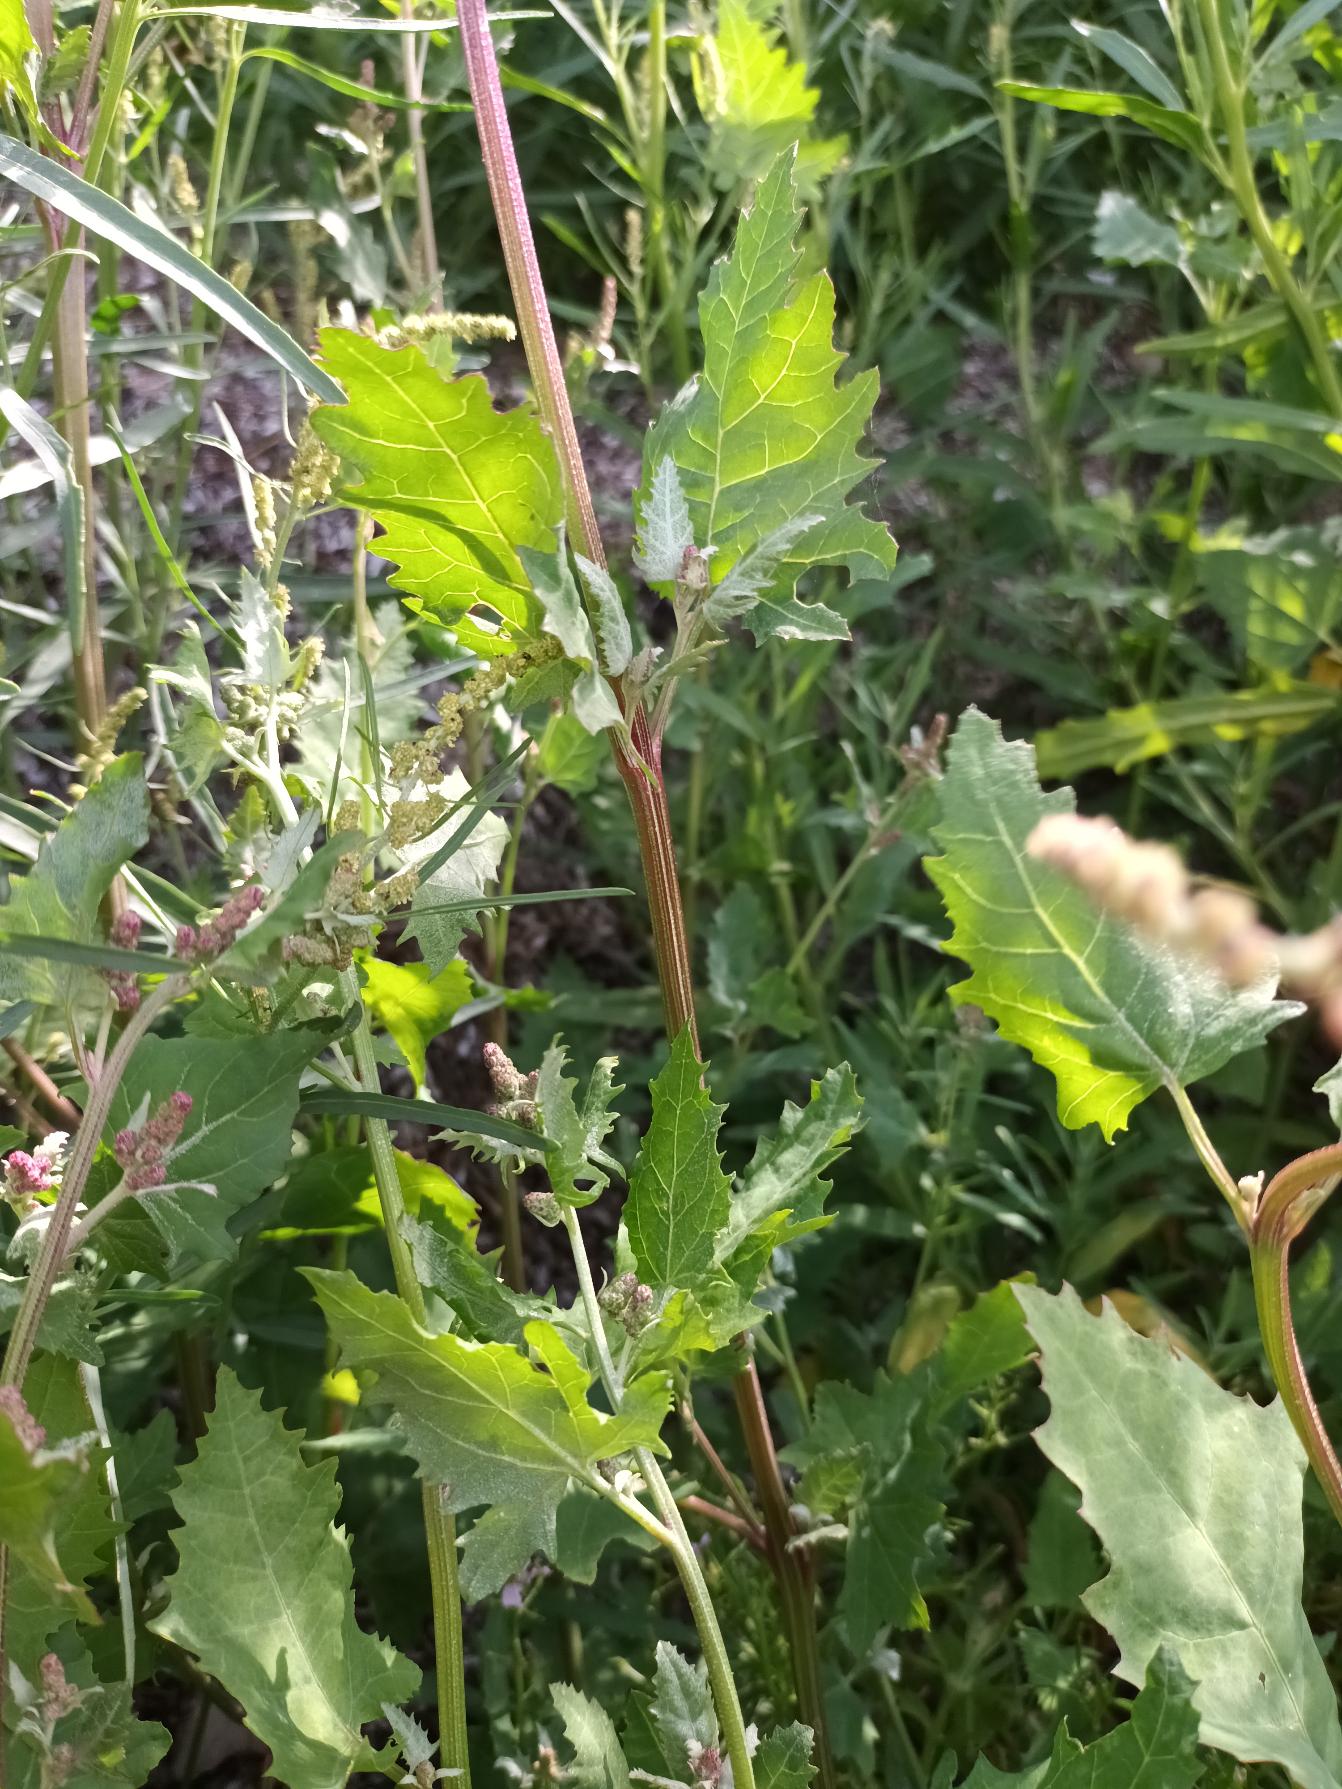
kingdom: Plantae
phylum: Tracheophyta
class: Magnoliopsida
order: Caryophyllales
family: Amaranthaceae
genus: Atriplex
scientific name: Atriplex calotheca
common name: Skønbægret mælde
